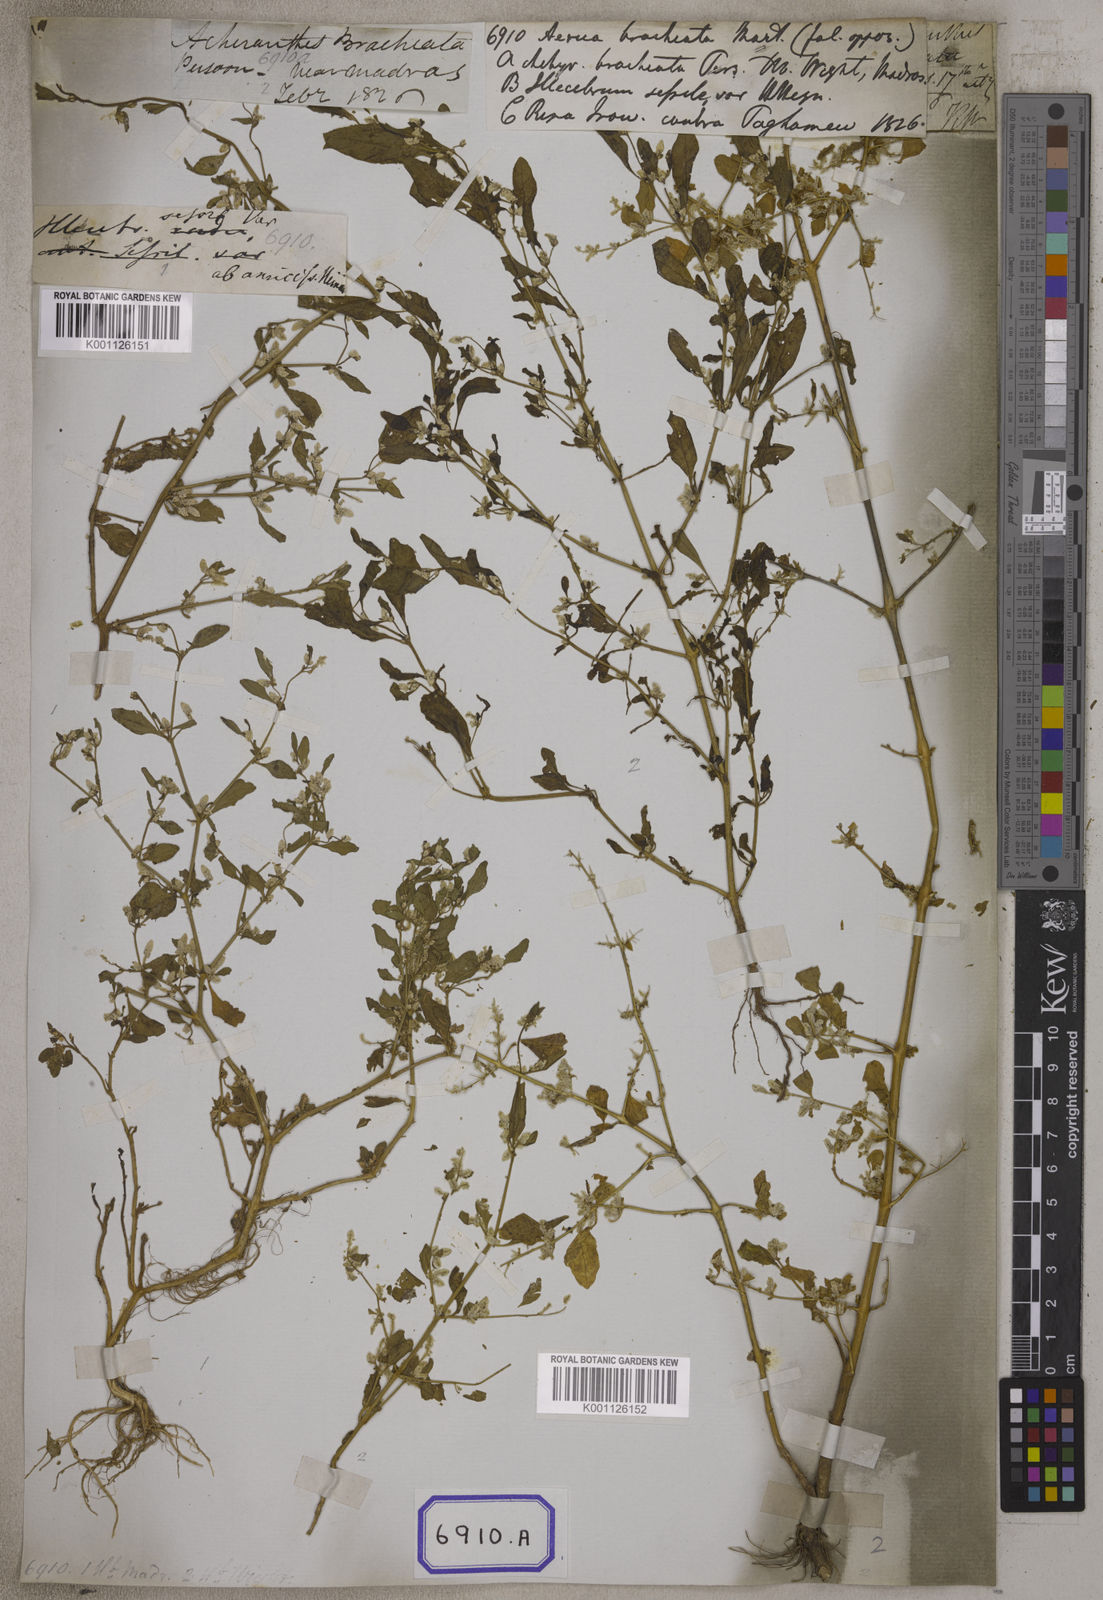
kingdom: Plantae
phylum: Tracheophyta
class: Magnoliopsida
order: Caryophyllales
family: Amaranthaceae
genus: Nothosaerva
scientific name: Nothosaerva brachiata
